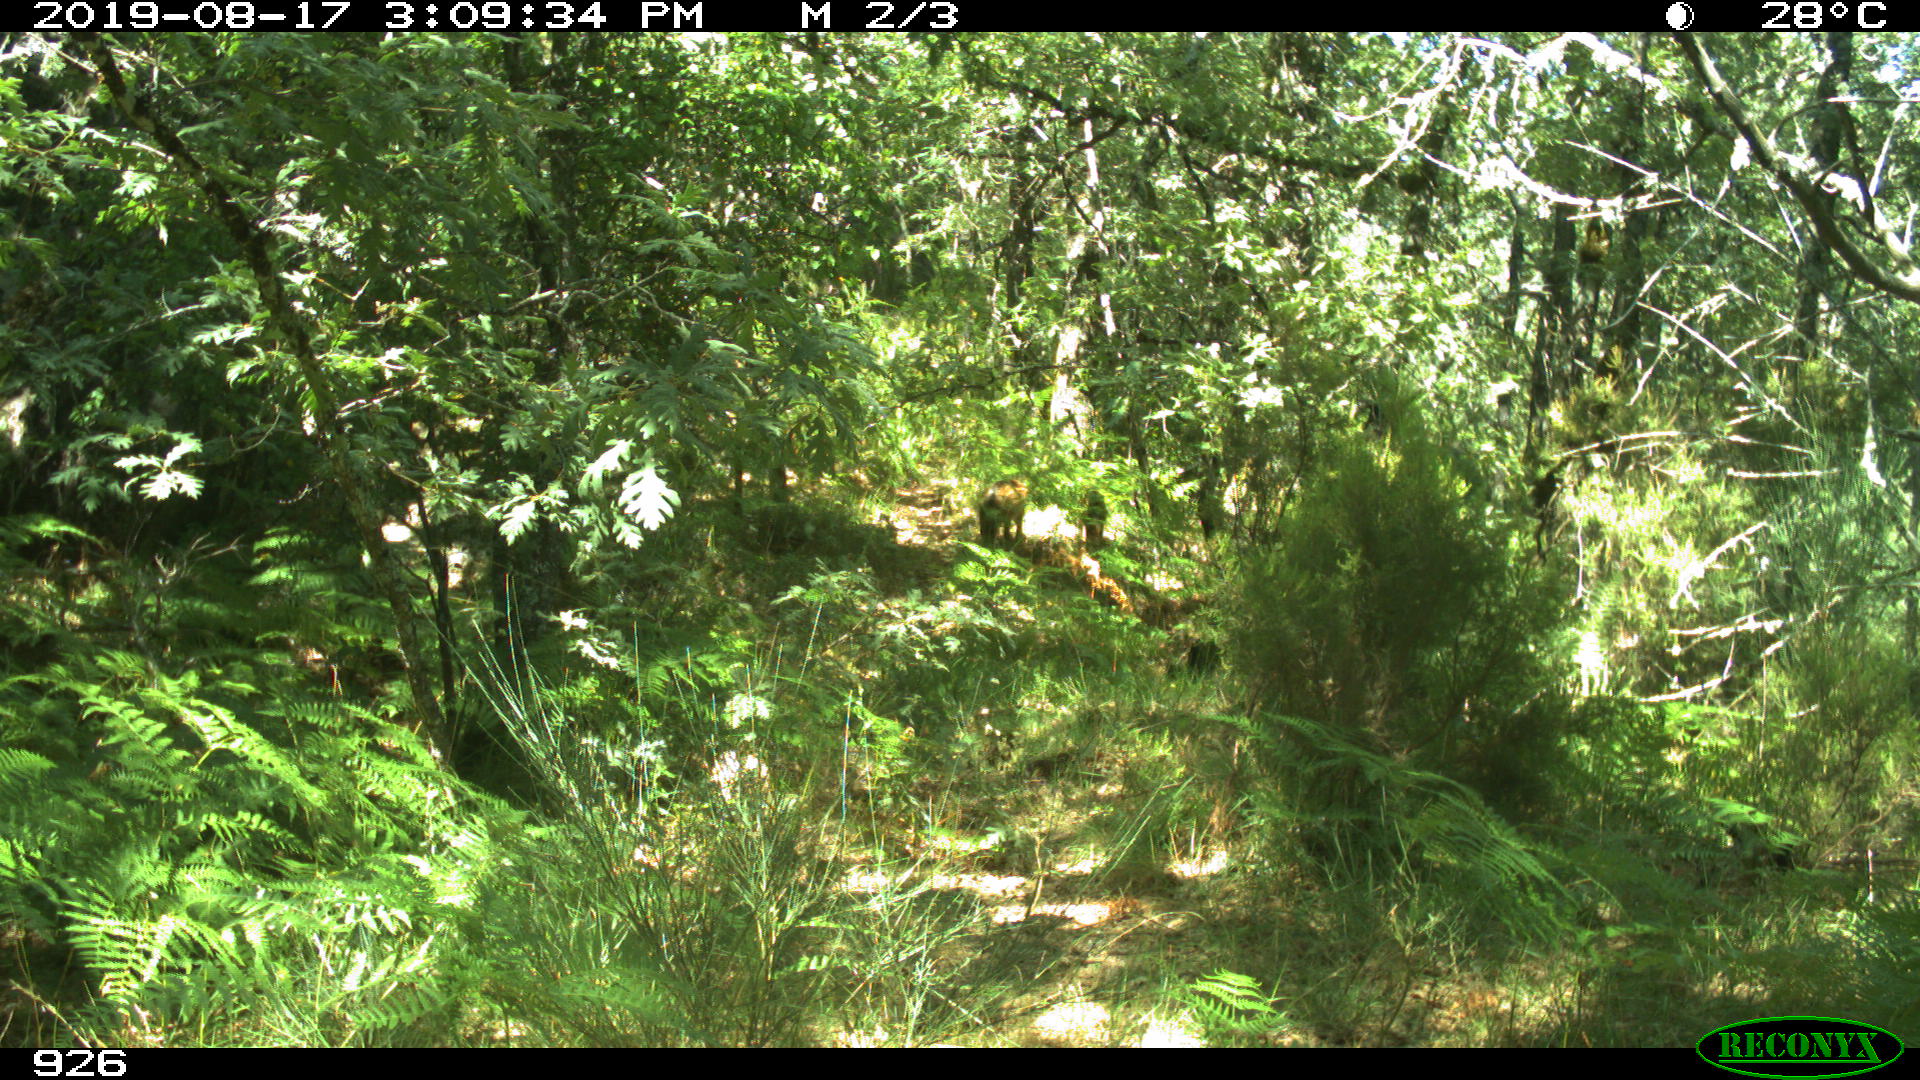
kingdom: Animalia
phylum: Chordata
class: Mammalia
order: Artiodactyla
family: Suidae
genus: Sus
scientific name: Sus scrofa
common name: Wild boar
